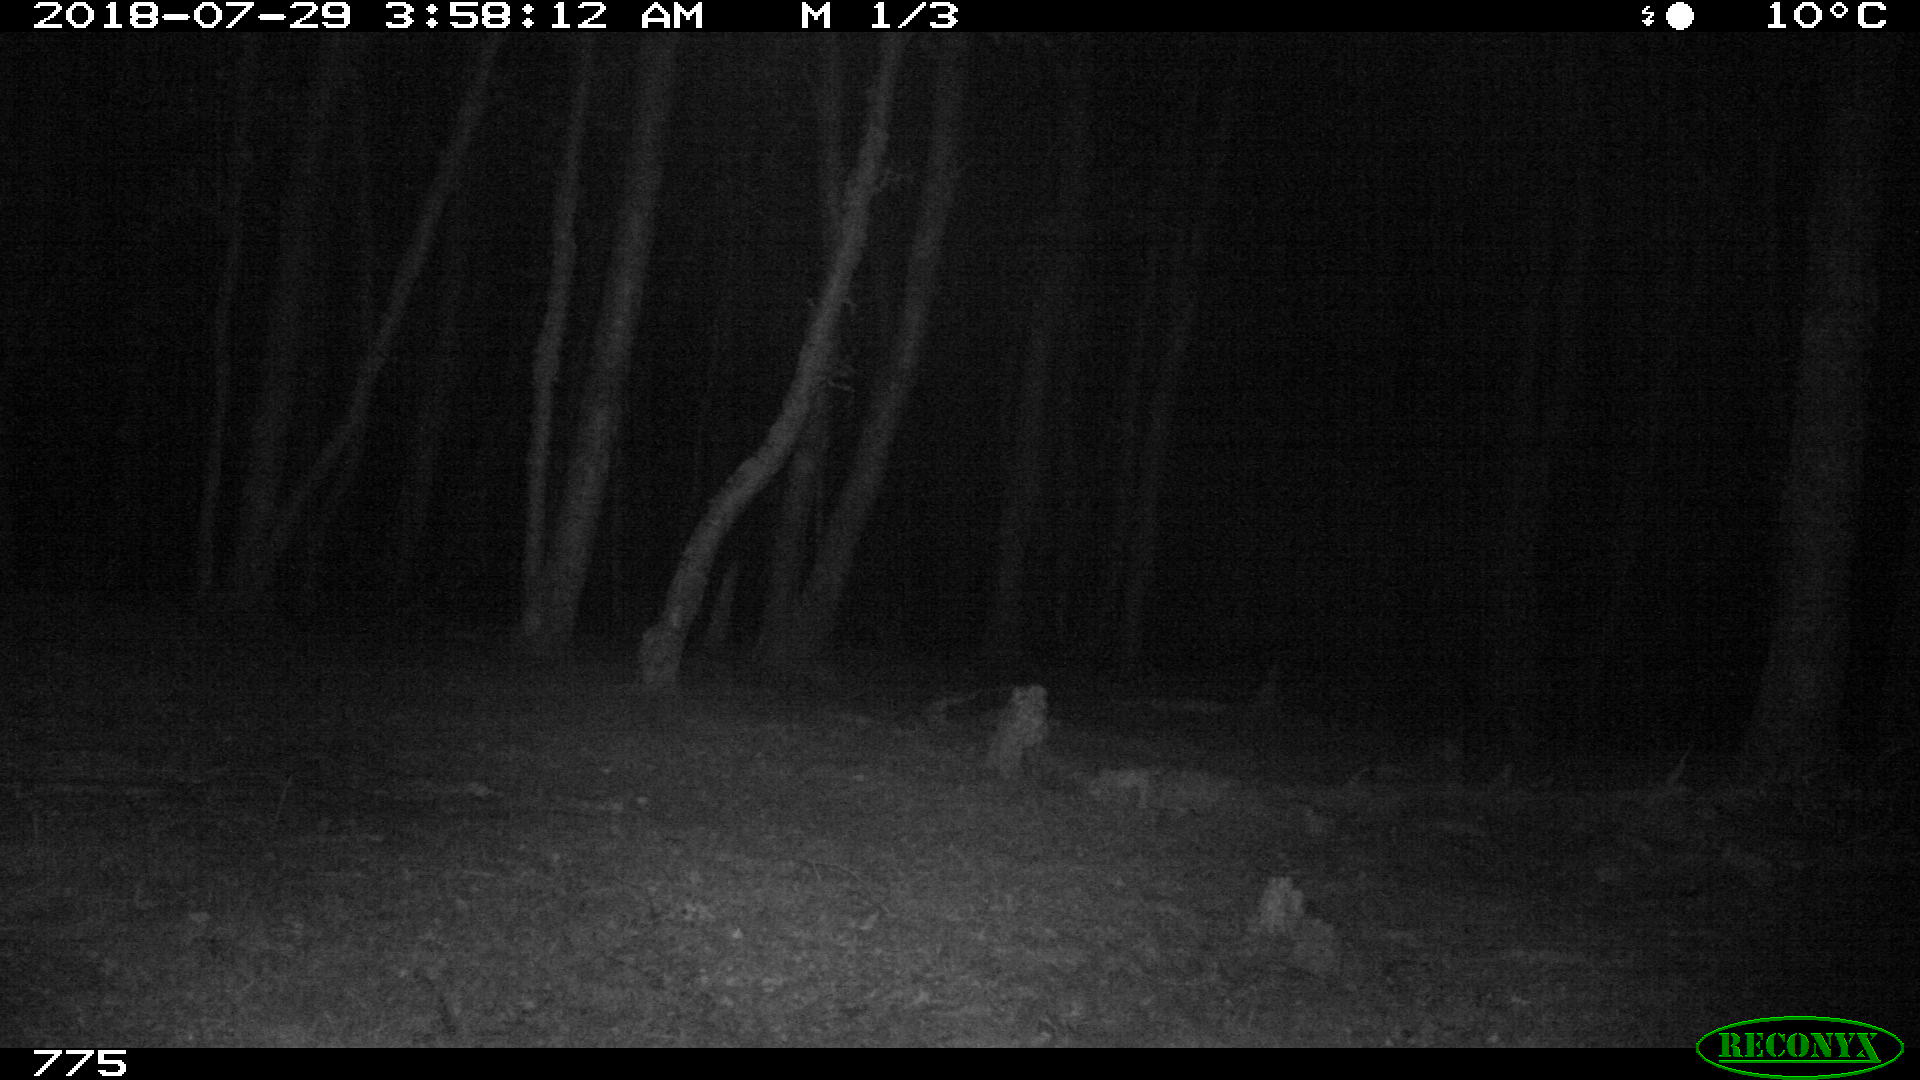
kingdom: Animalia
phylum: Chordata
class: Mammalia
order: Artiodactyla
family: Cervidae
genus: Capreolus
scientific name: Capreolus capreolus
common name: Western roe deer
